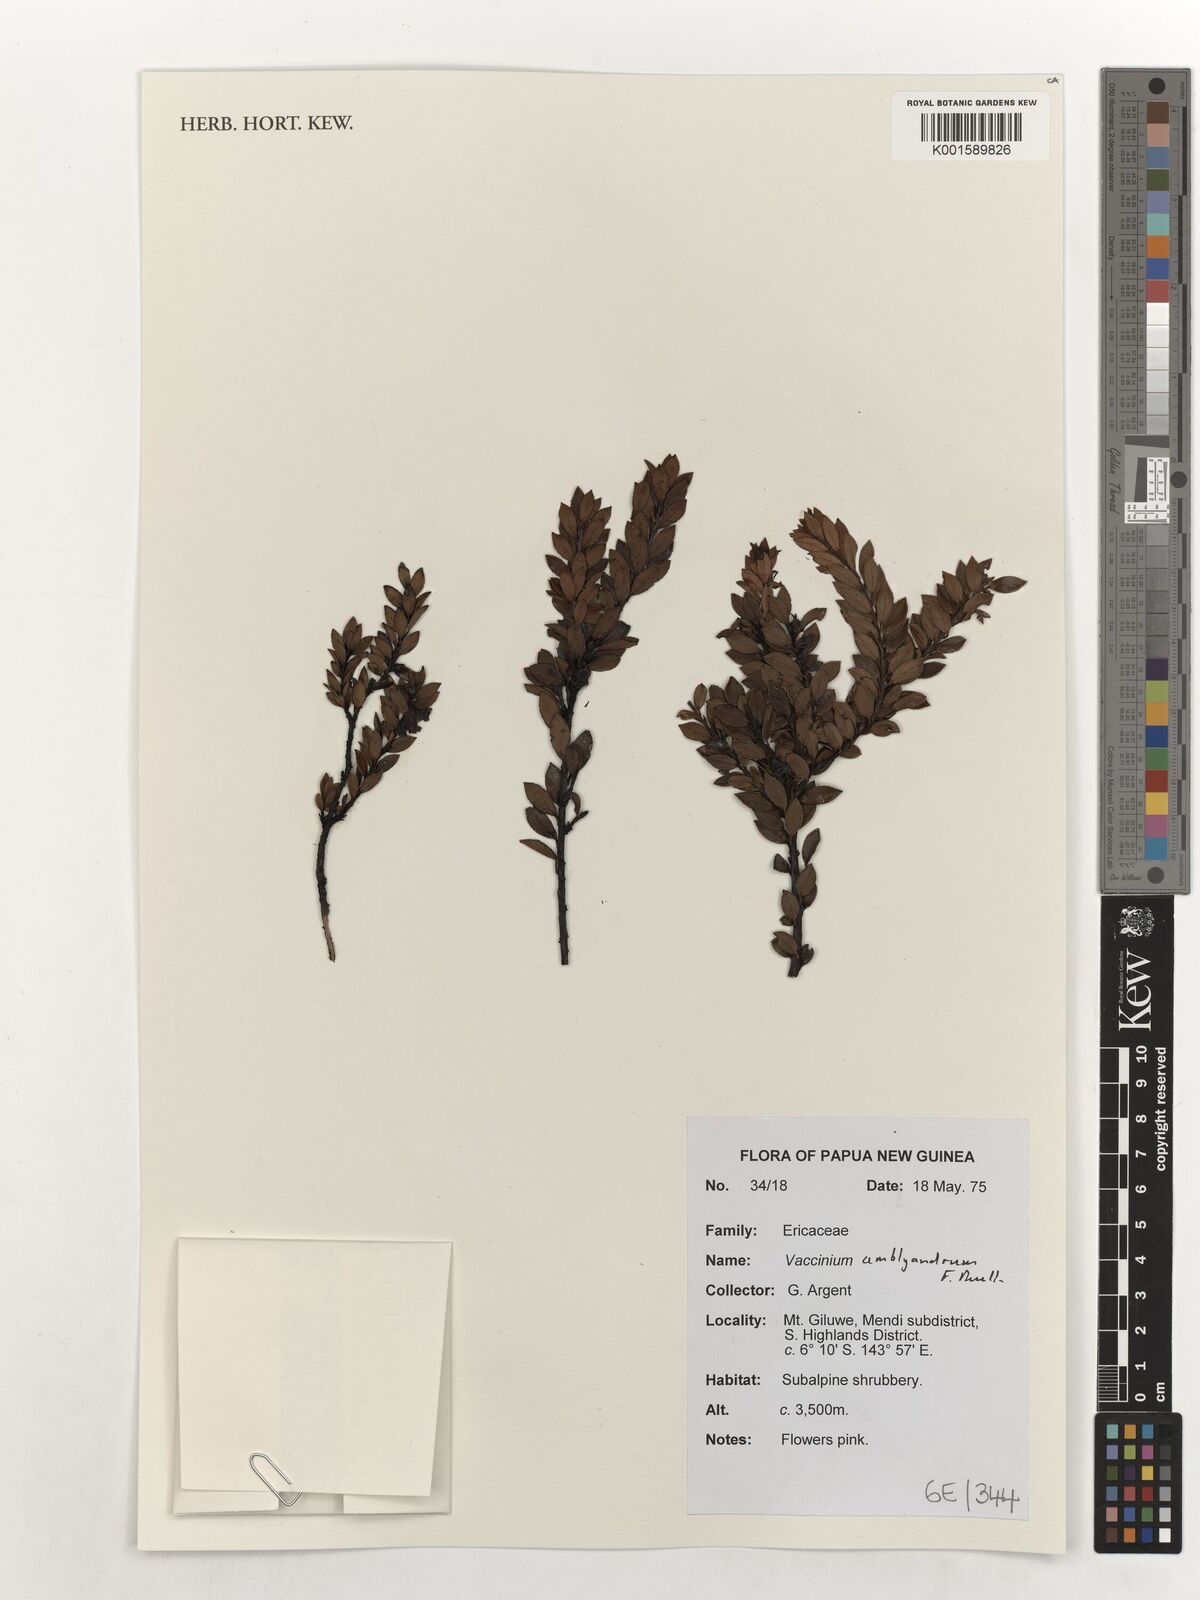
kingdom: Plantae
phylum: Tracheophyta
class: Magnoliopsida
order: Ericales
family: Ericaceae
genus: Vaccinium
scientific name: Vaccinium amblyandrum
